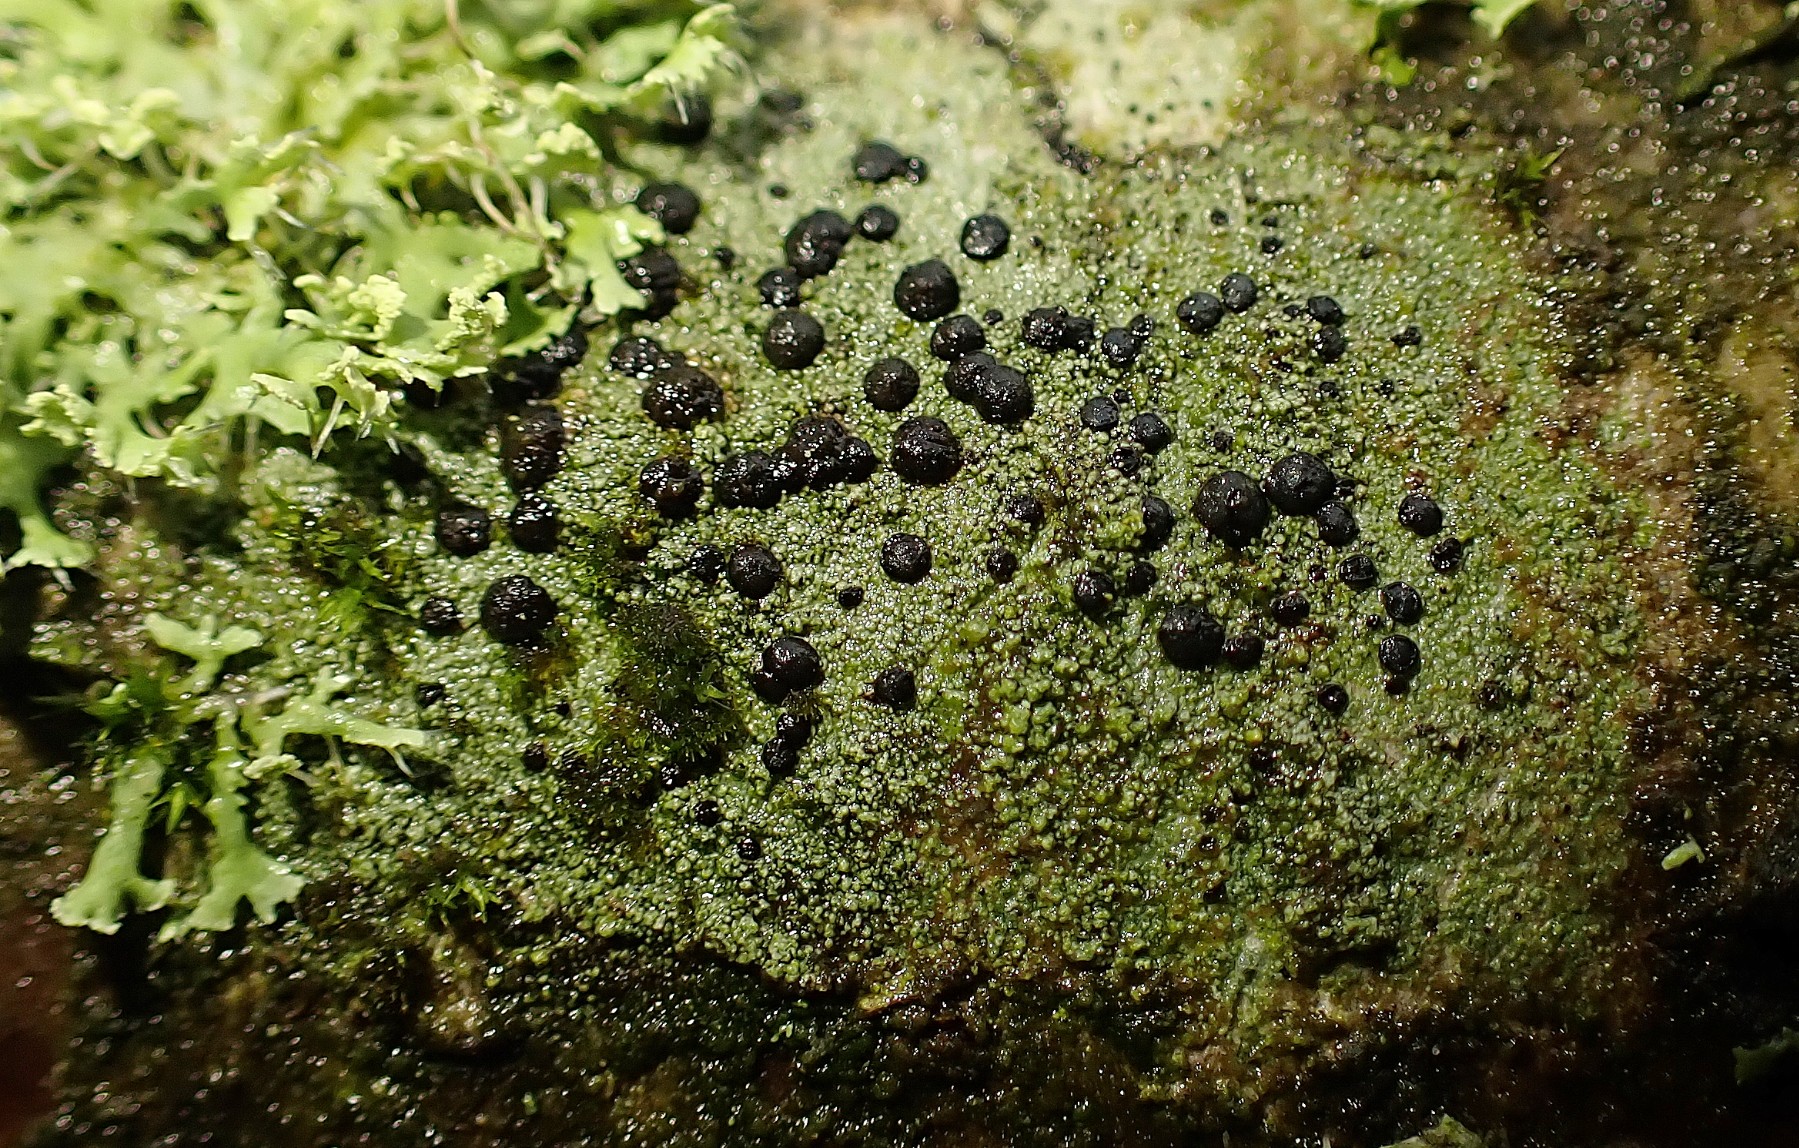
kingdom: Fungi
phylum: Ascomycota
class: Lecanoromycetes
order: Lecanorales
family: Lecanoraceae
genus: Lecidella
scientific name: Lecidella elaeochroma
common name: grågrøn skivelav
